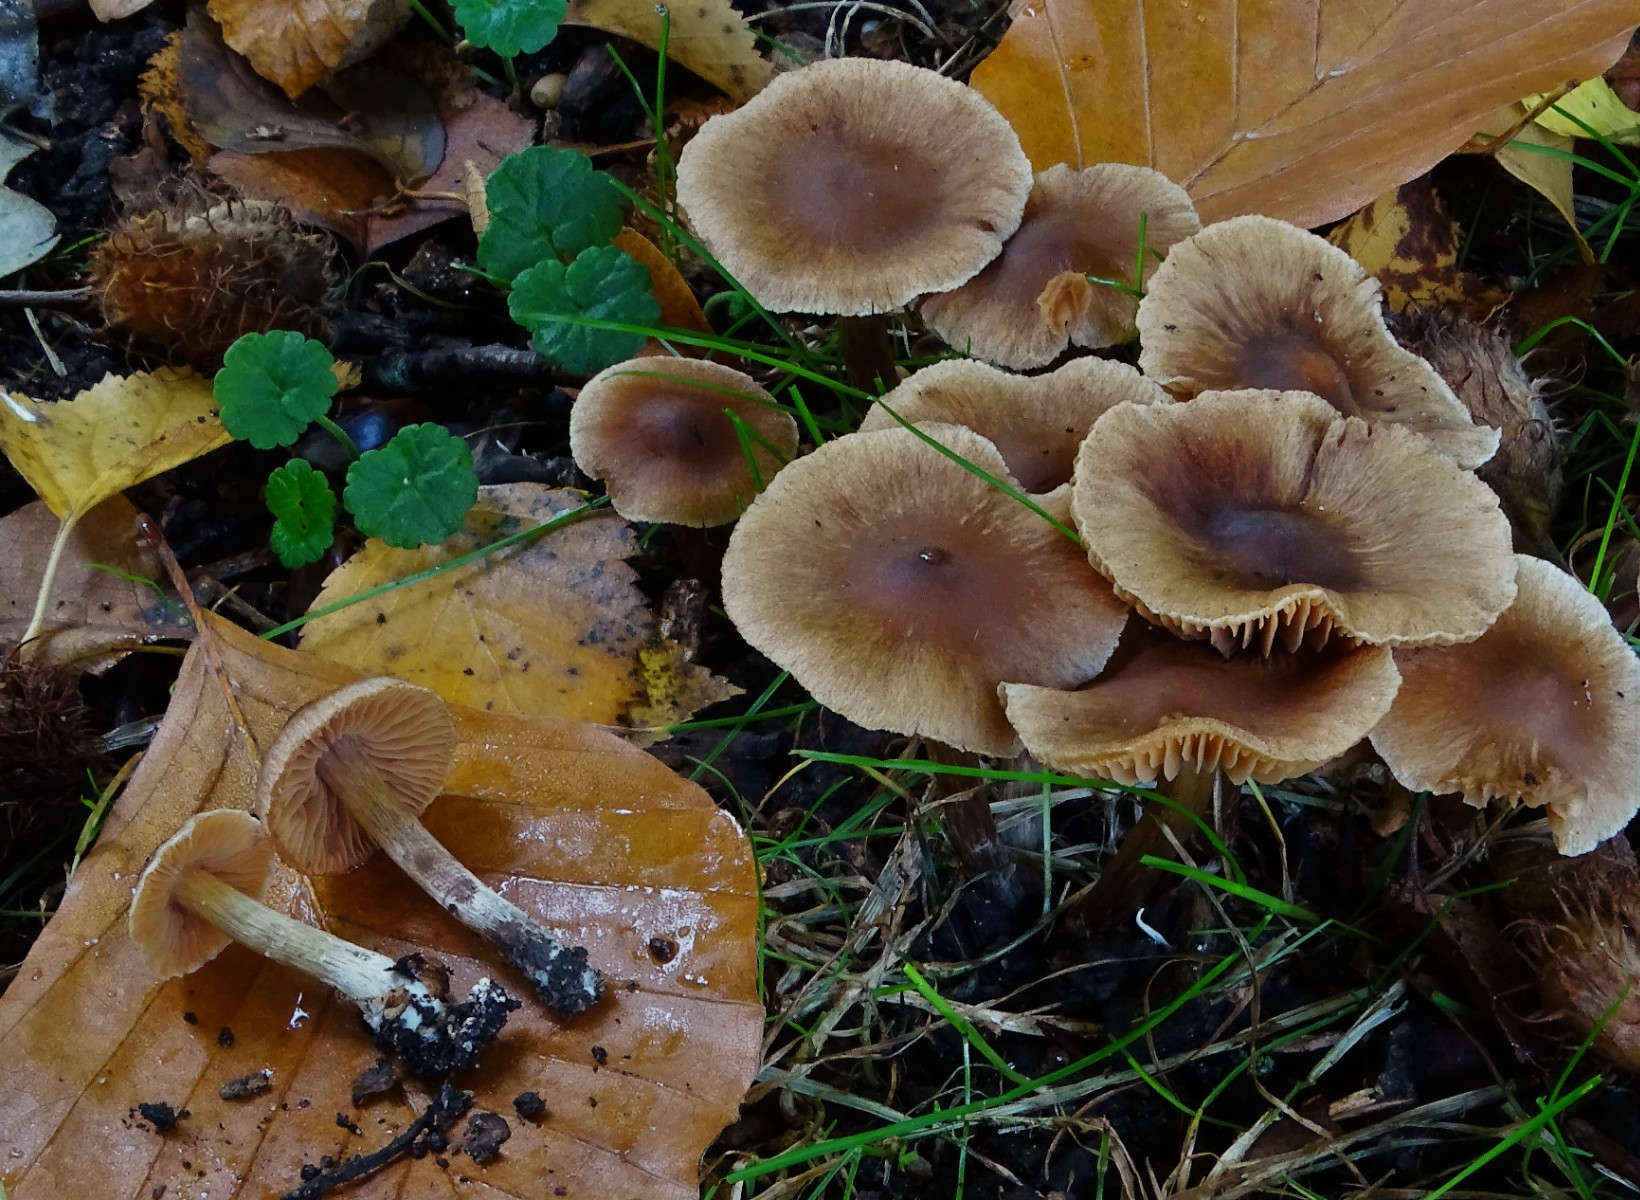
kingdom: Fungi
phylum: Basidiomycota
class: Agaricomycetes
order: Agaricales
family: Cortinariaceae
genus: Cortinarius
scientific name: Cortinarius decipientoides
